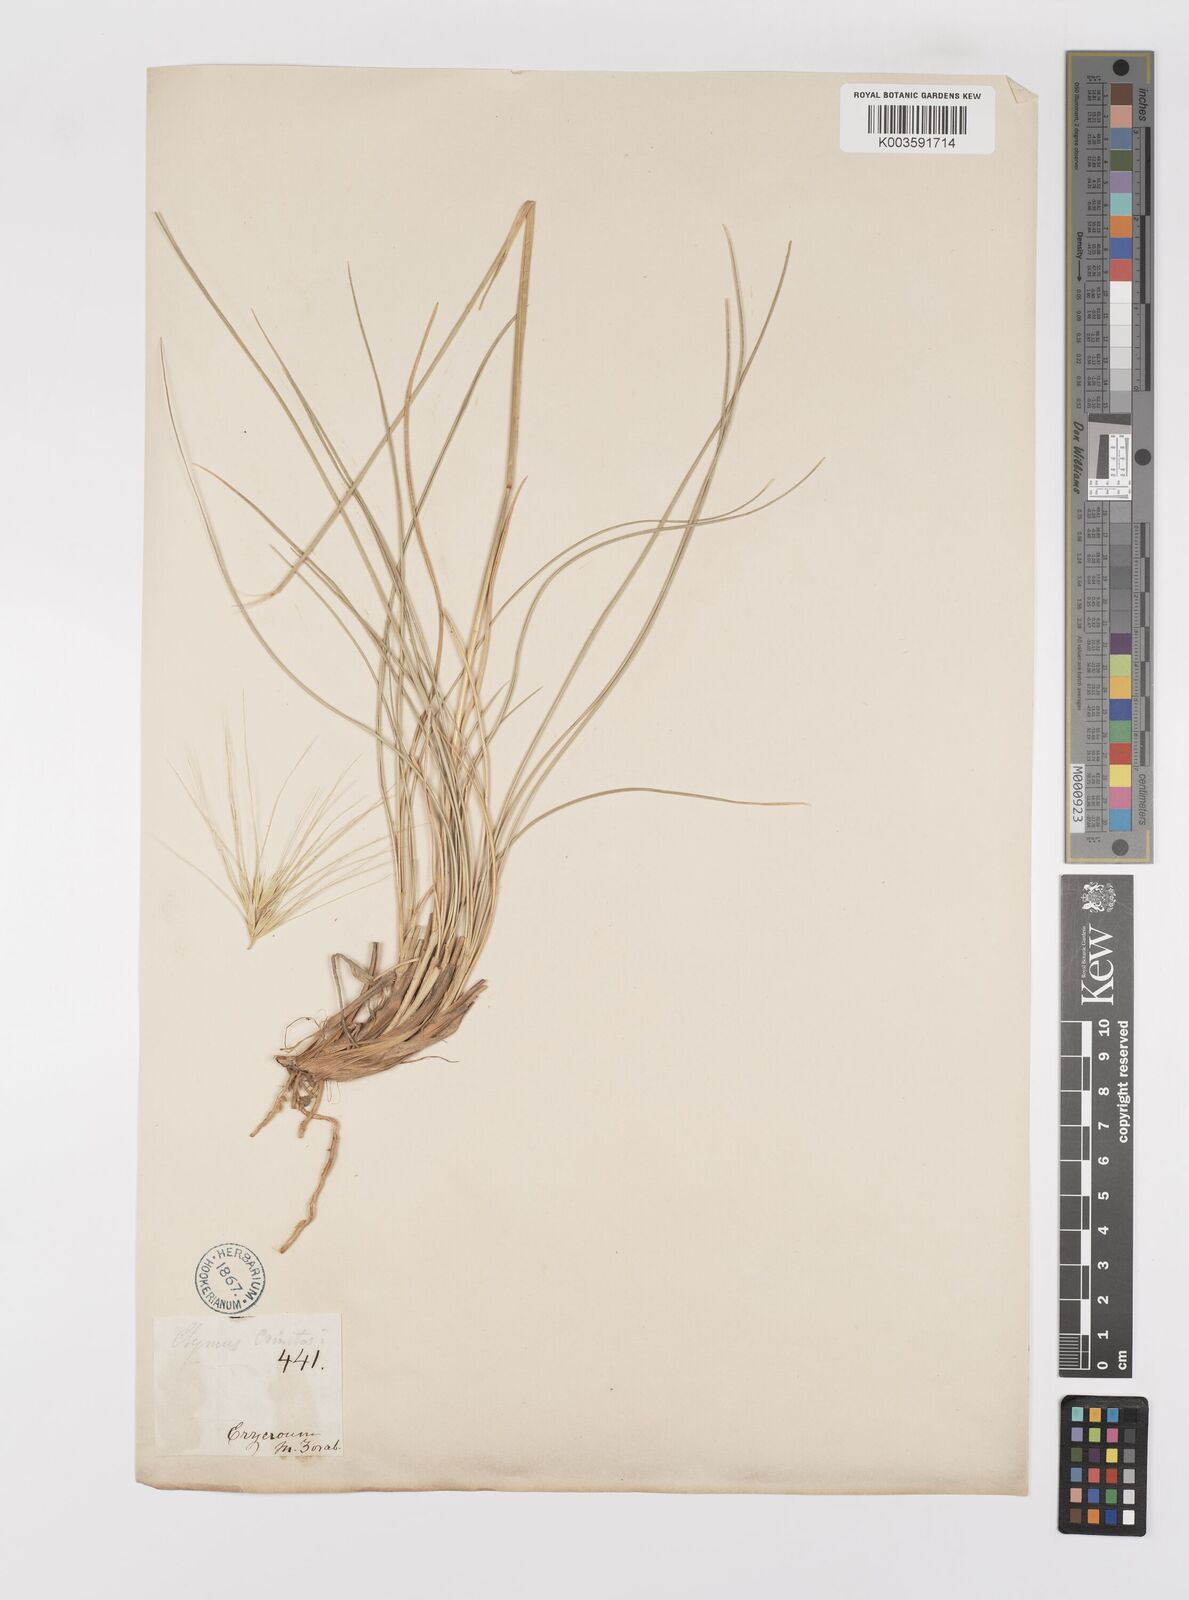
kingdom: Plantae
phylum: Tracheophyta
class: Liliopsida
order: Poales
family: Poaceae
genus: Psathyrostachys
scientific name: Psathyrostachys fragilis
